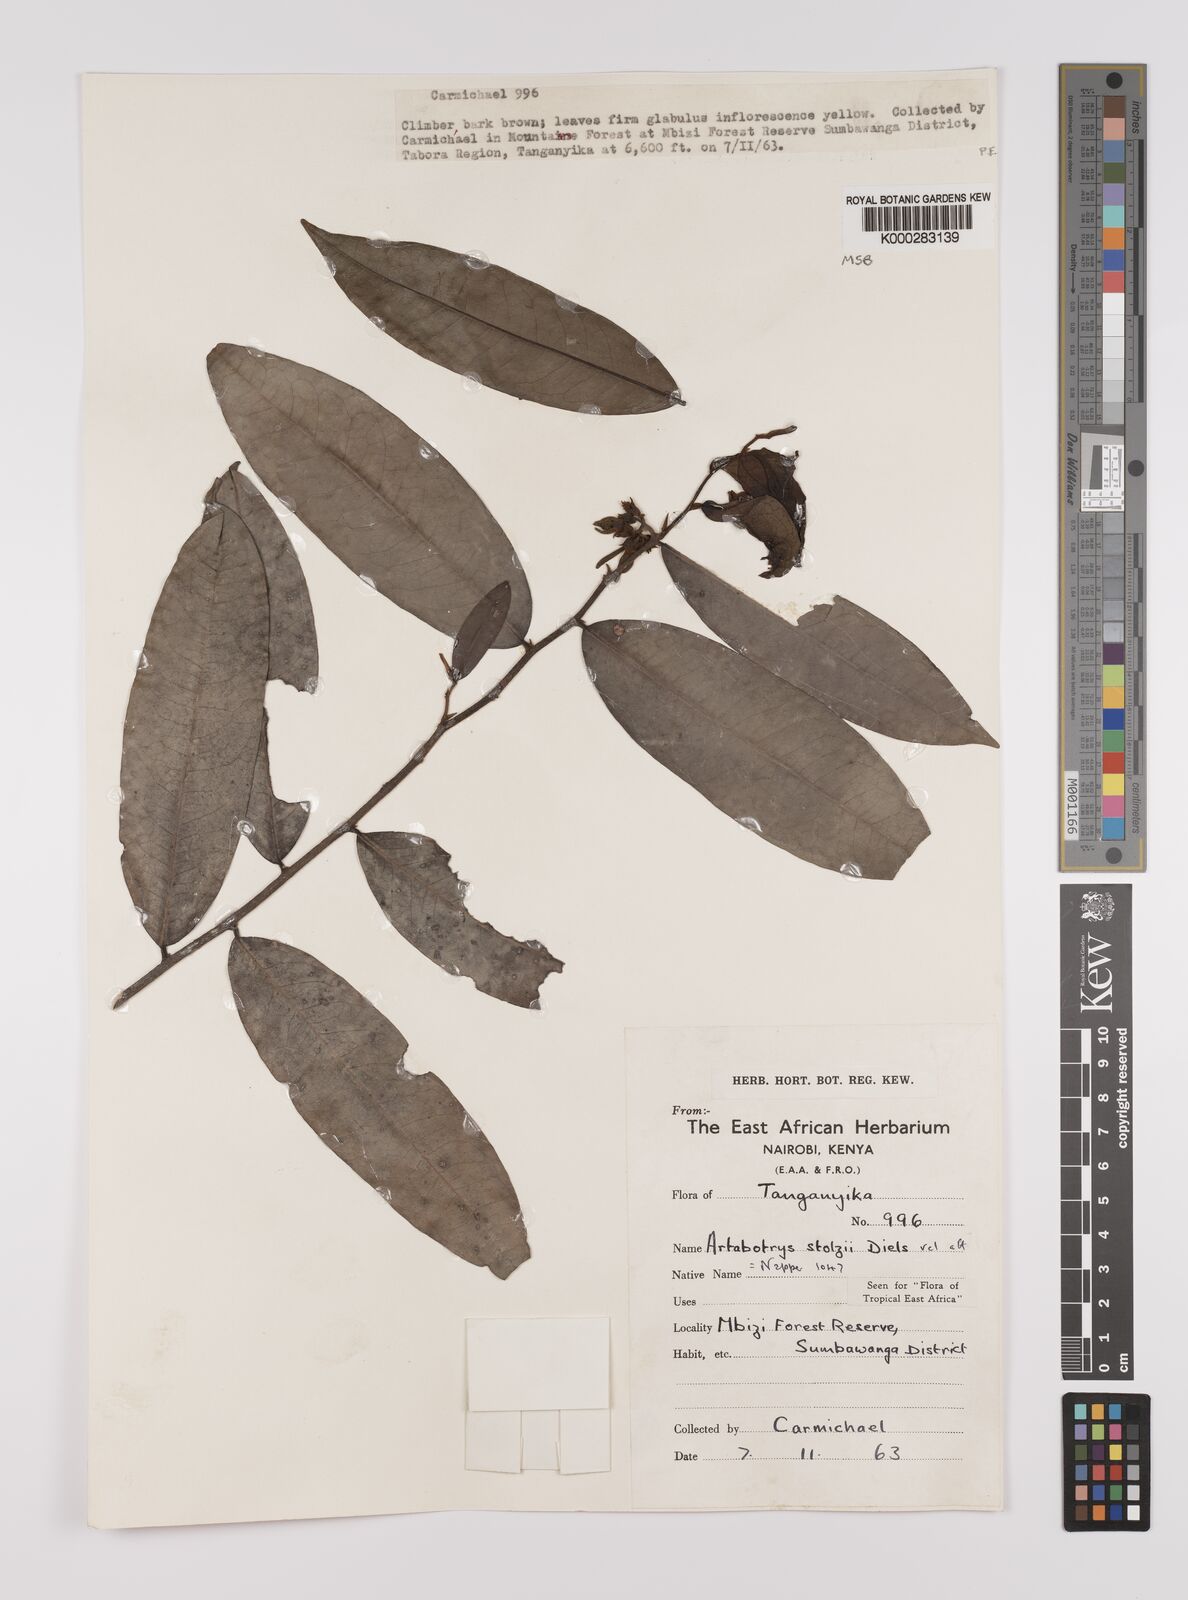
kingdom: Plantae
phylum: Tracheophyta
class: Magnoliopsida
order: Magnoliales
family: Annonaceae
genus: Artabotrys
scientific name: Artabotrys stolzii
